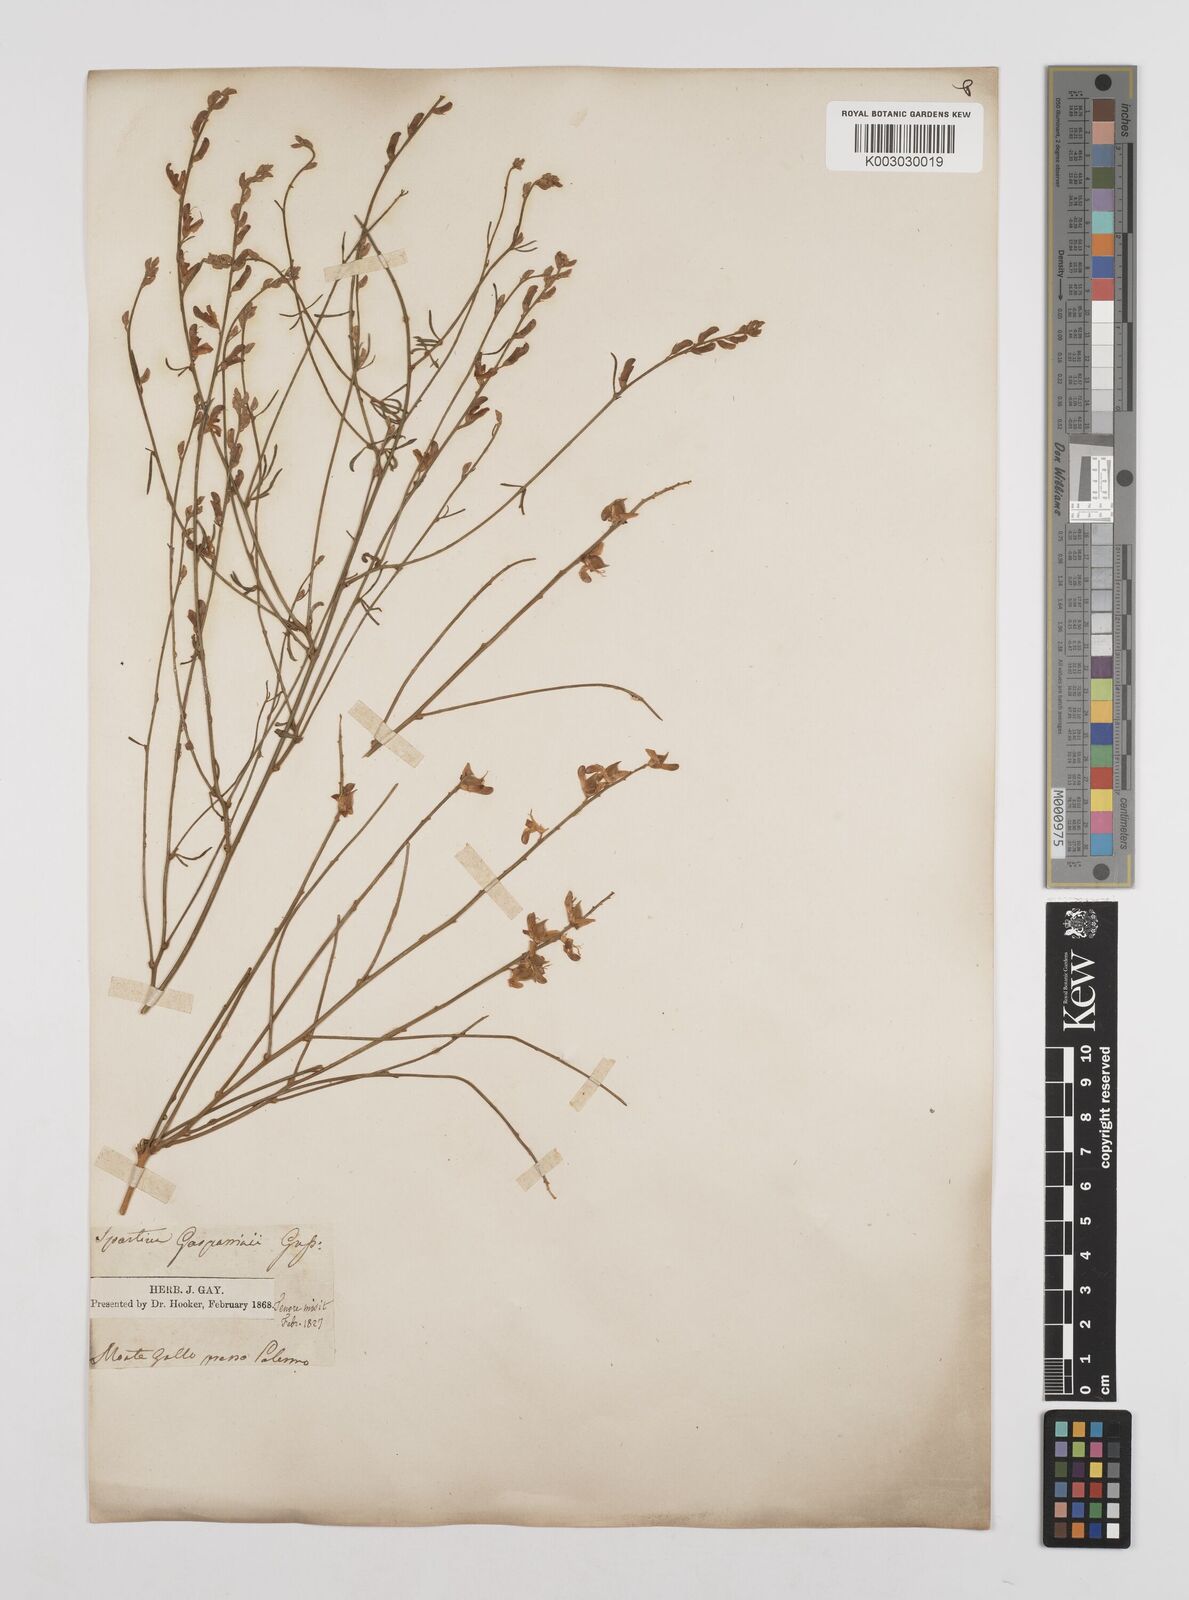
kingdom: Plantae
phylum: Tracheophyta
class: Magnoliopsida
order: Fabales
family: Fabaceae
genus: Genista
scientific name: Genista ephedroides
